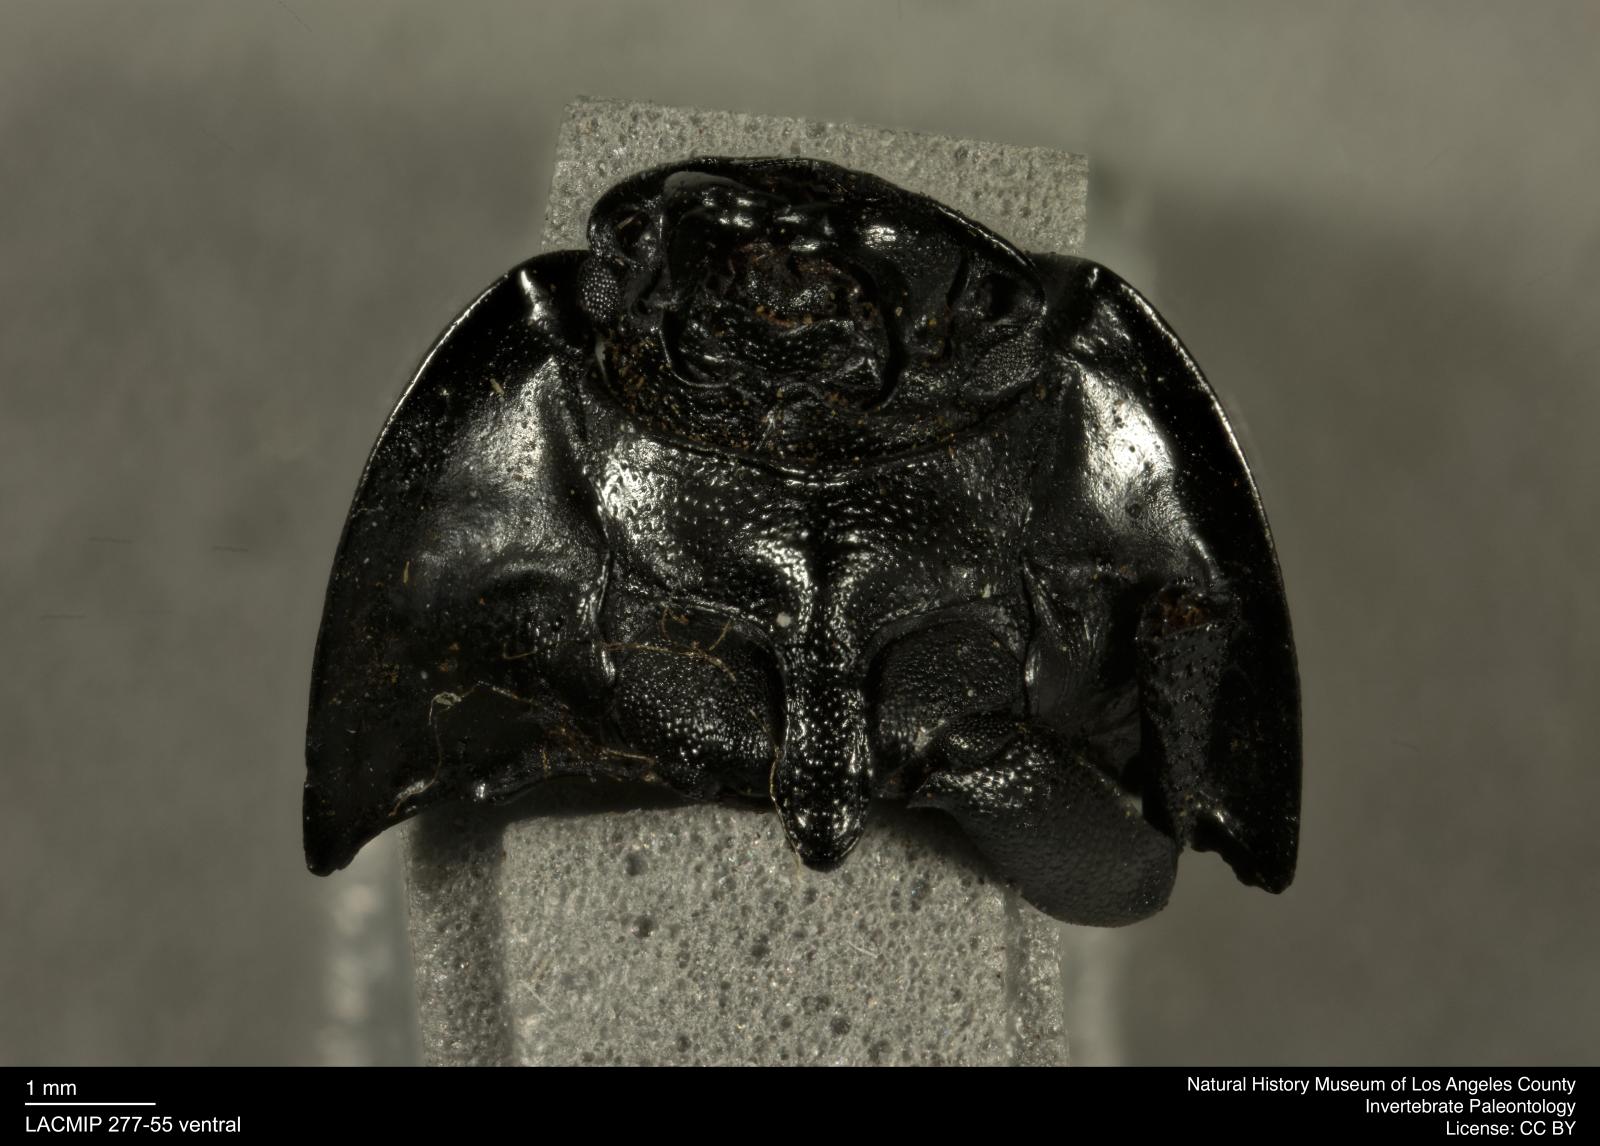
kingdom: Animalia
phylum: Arthropoda
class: Insecta
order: Coleoptera
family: Tenebrionidae
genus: Coniontis
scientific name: Coniontis abdominalis
